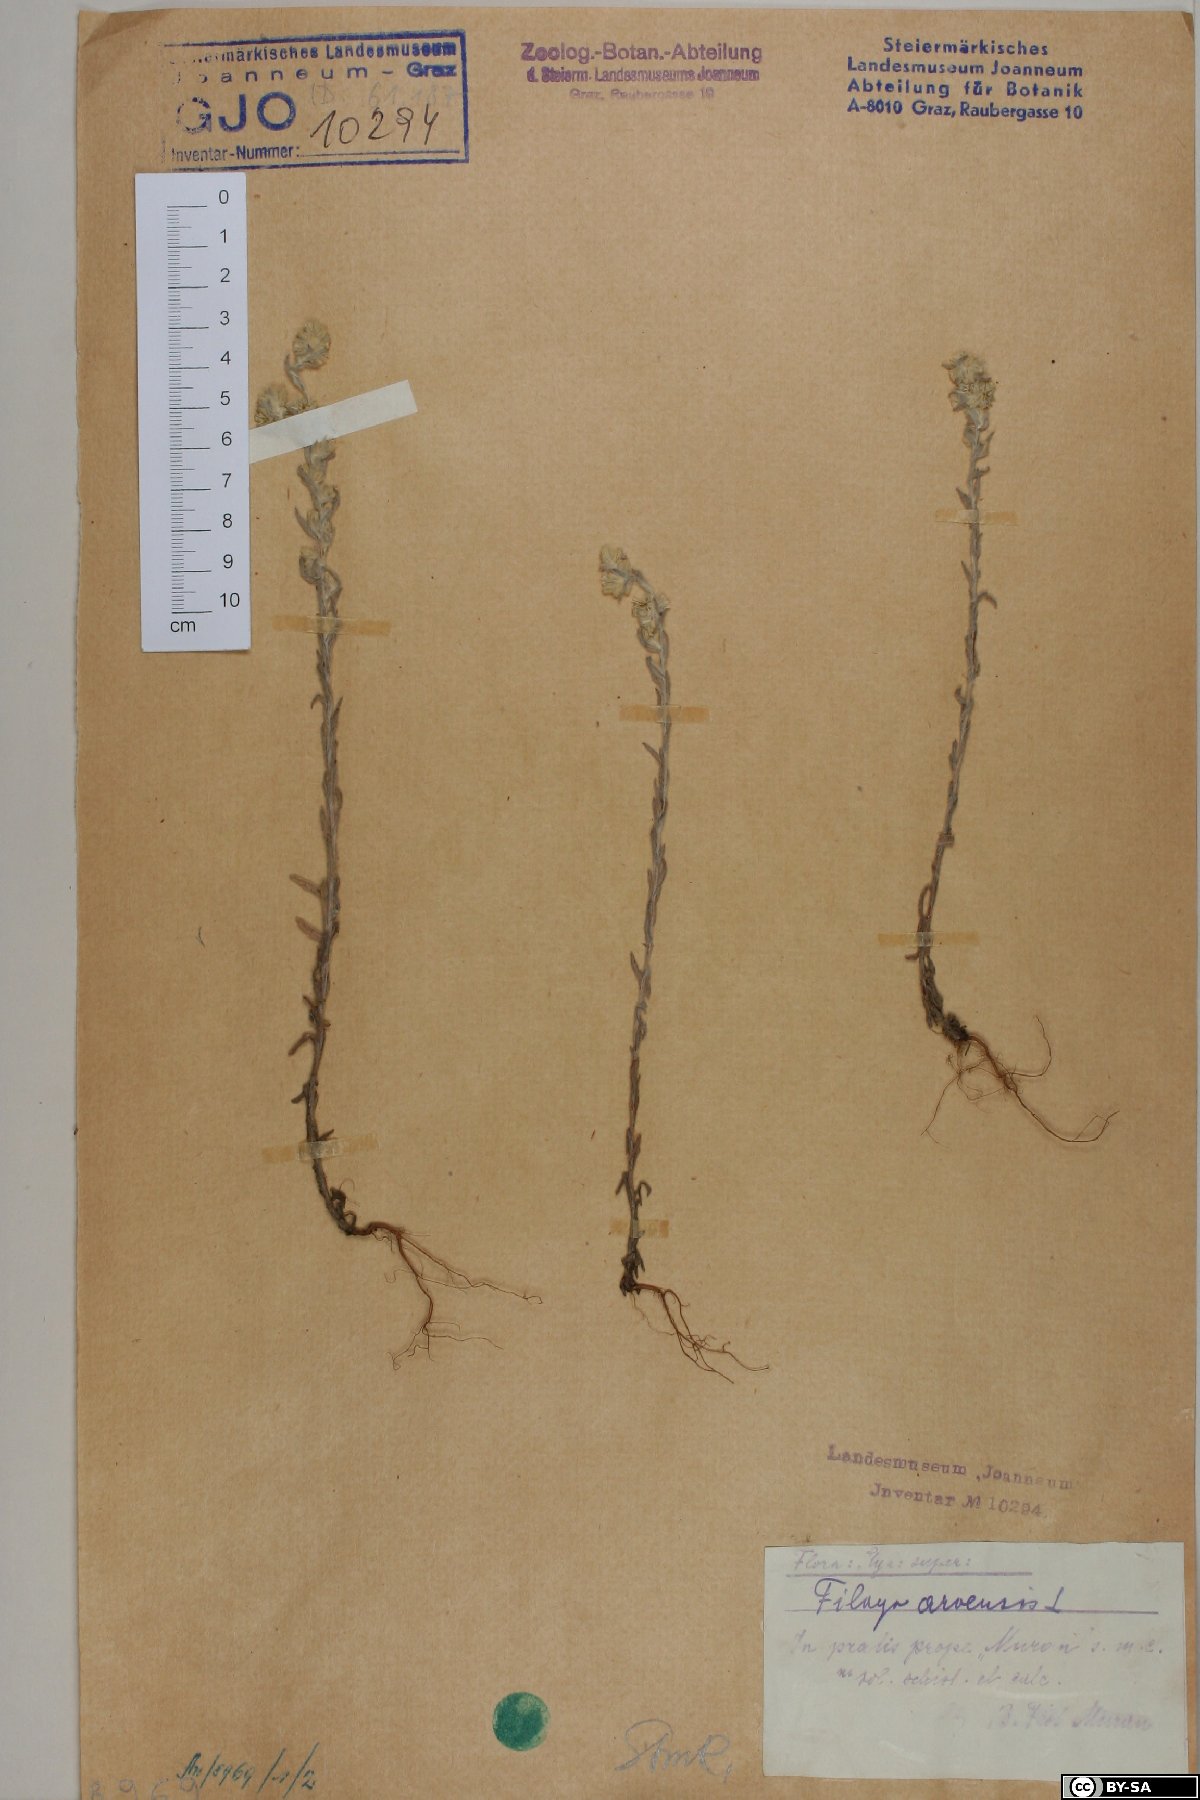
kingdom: Plantae
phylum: Tracheophyta
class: Magnoliopsida
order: Asterales
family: Asteraceae
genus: Filago
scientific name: Filago arvensis
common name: Field cudweed
